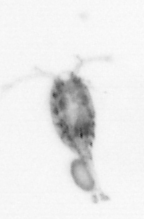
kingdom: Animalia
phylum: Arthropoda
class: Copepoda
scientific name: Copepoda
